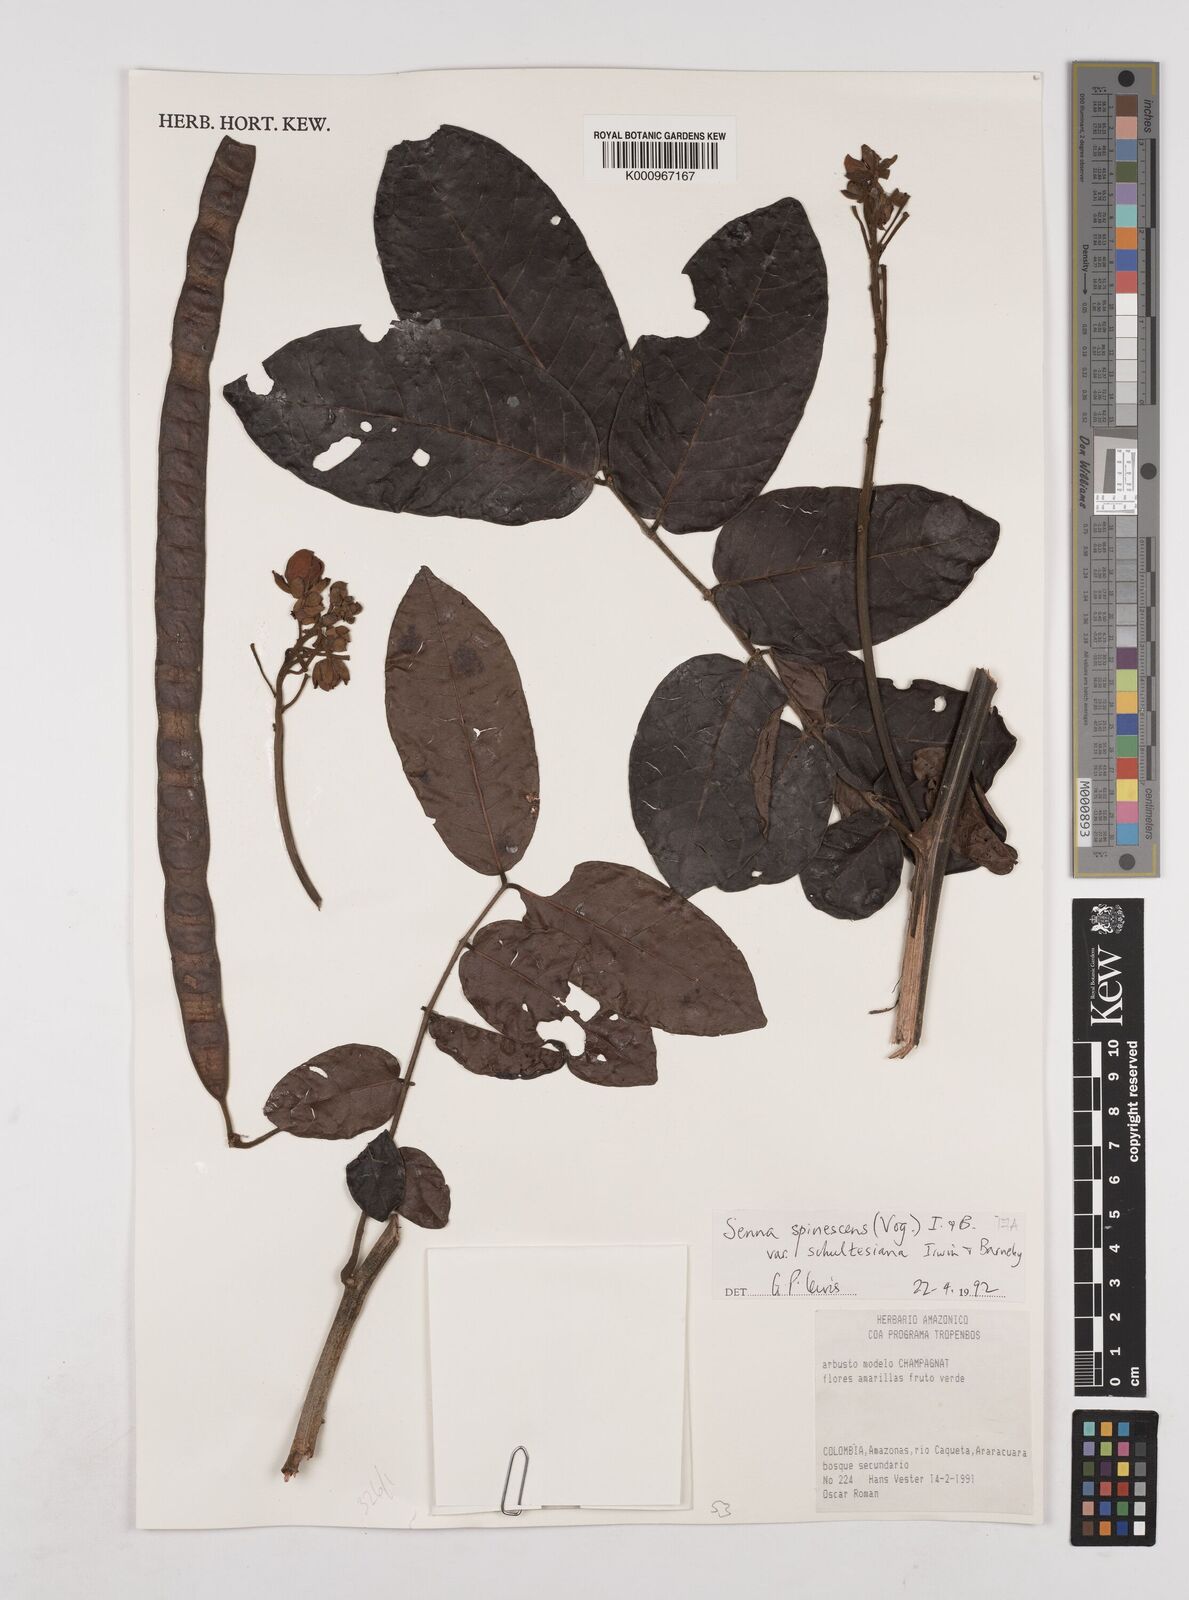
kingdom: Plantae
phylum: Tracheophyta
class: Magnoliopsida
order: Fabales
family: Fabaceae
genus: Senna
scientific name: Senna spinescens
